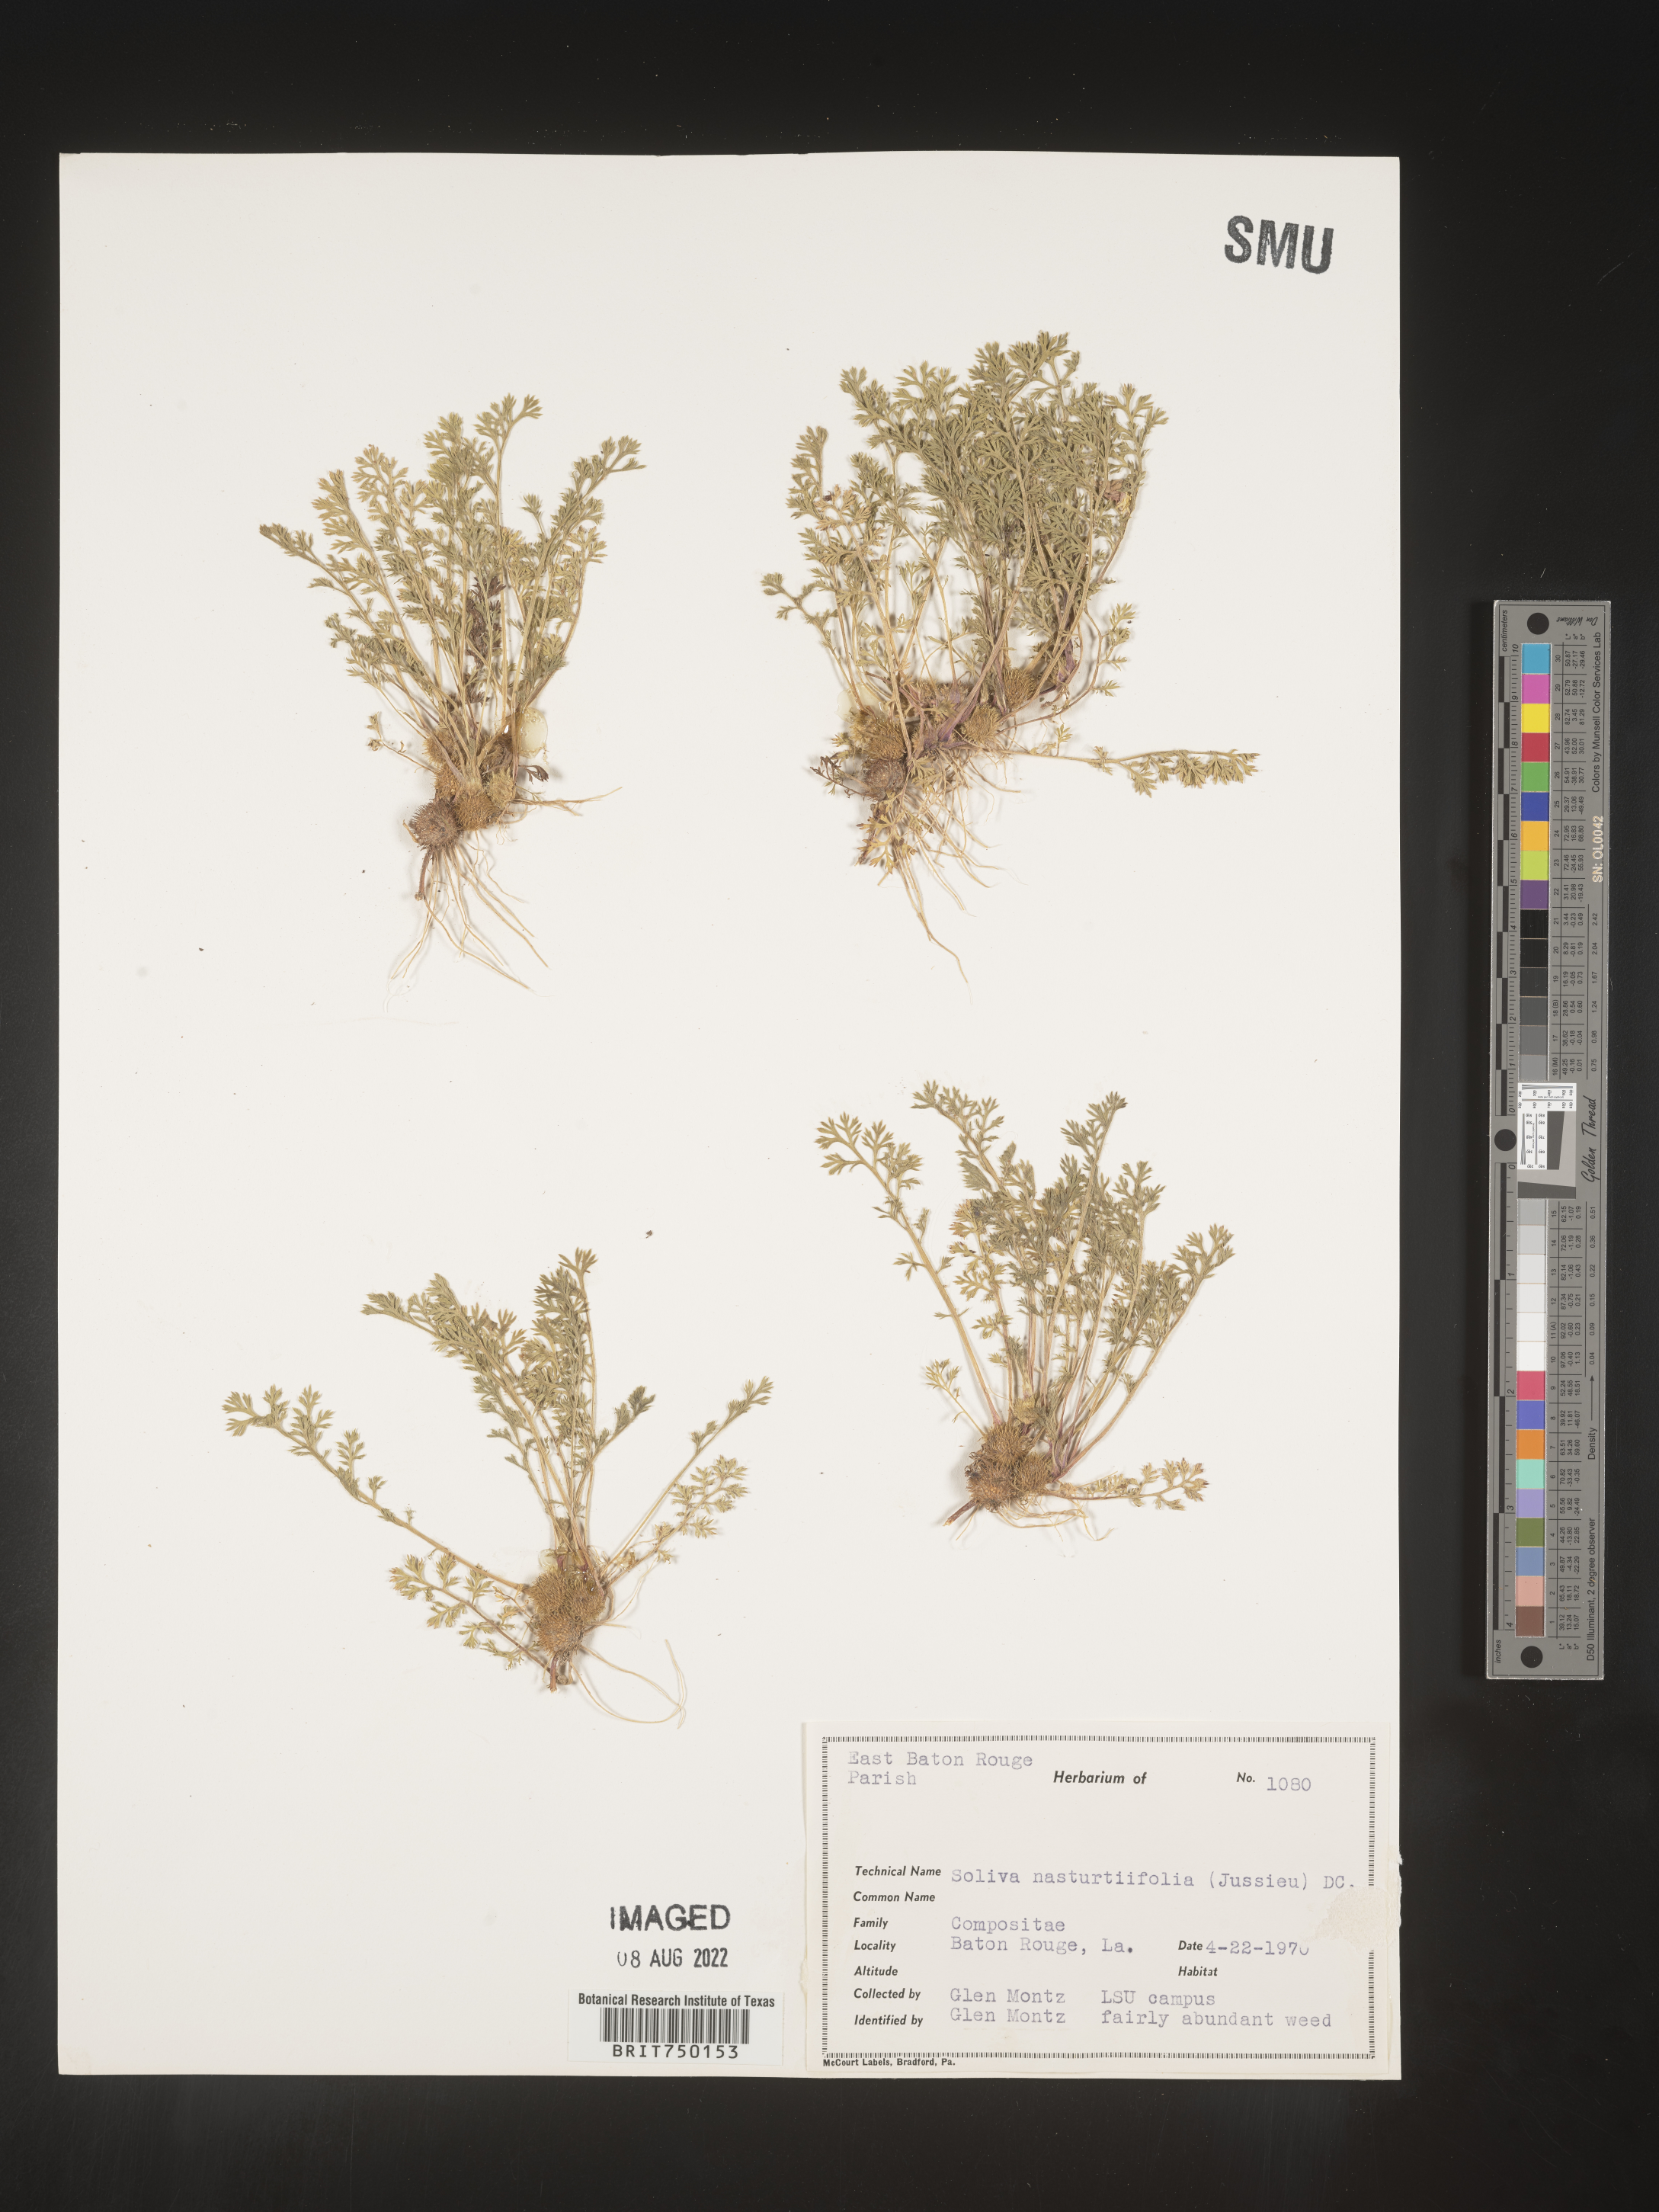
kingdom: Plantae
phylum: Tracheophyta
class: Magnoliopsida
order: Asterales
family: Asteraceae
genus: Soliva
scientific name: Soliva
